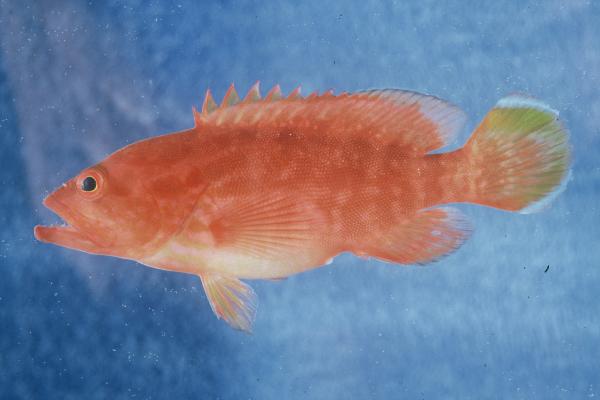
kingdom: Animalia
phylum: Chordata
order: Perciformes
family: Serranidae
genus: Cephalopholis
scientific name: Cephalopholis spiloparaea
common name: Strawberry grouper
